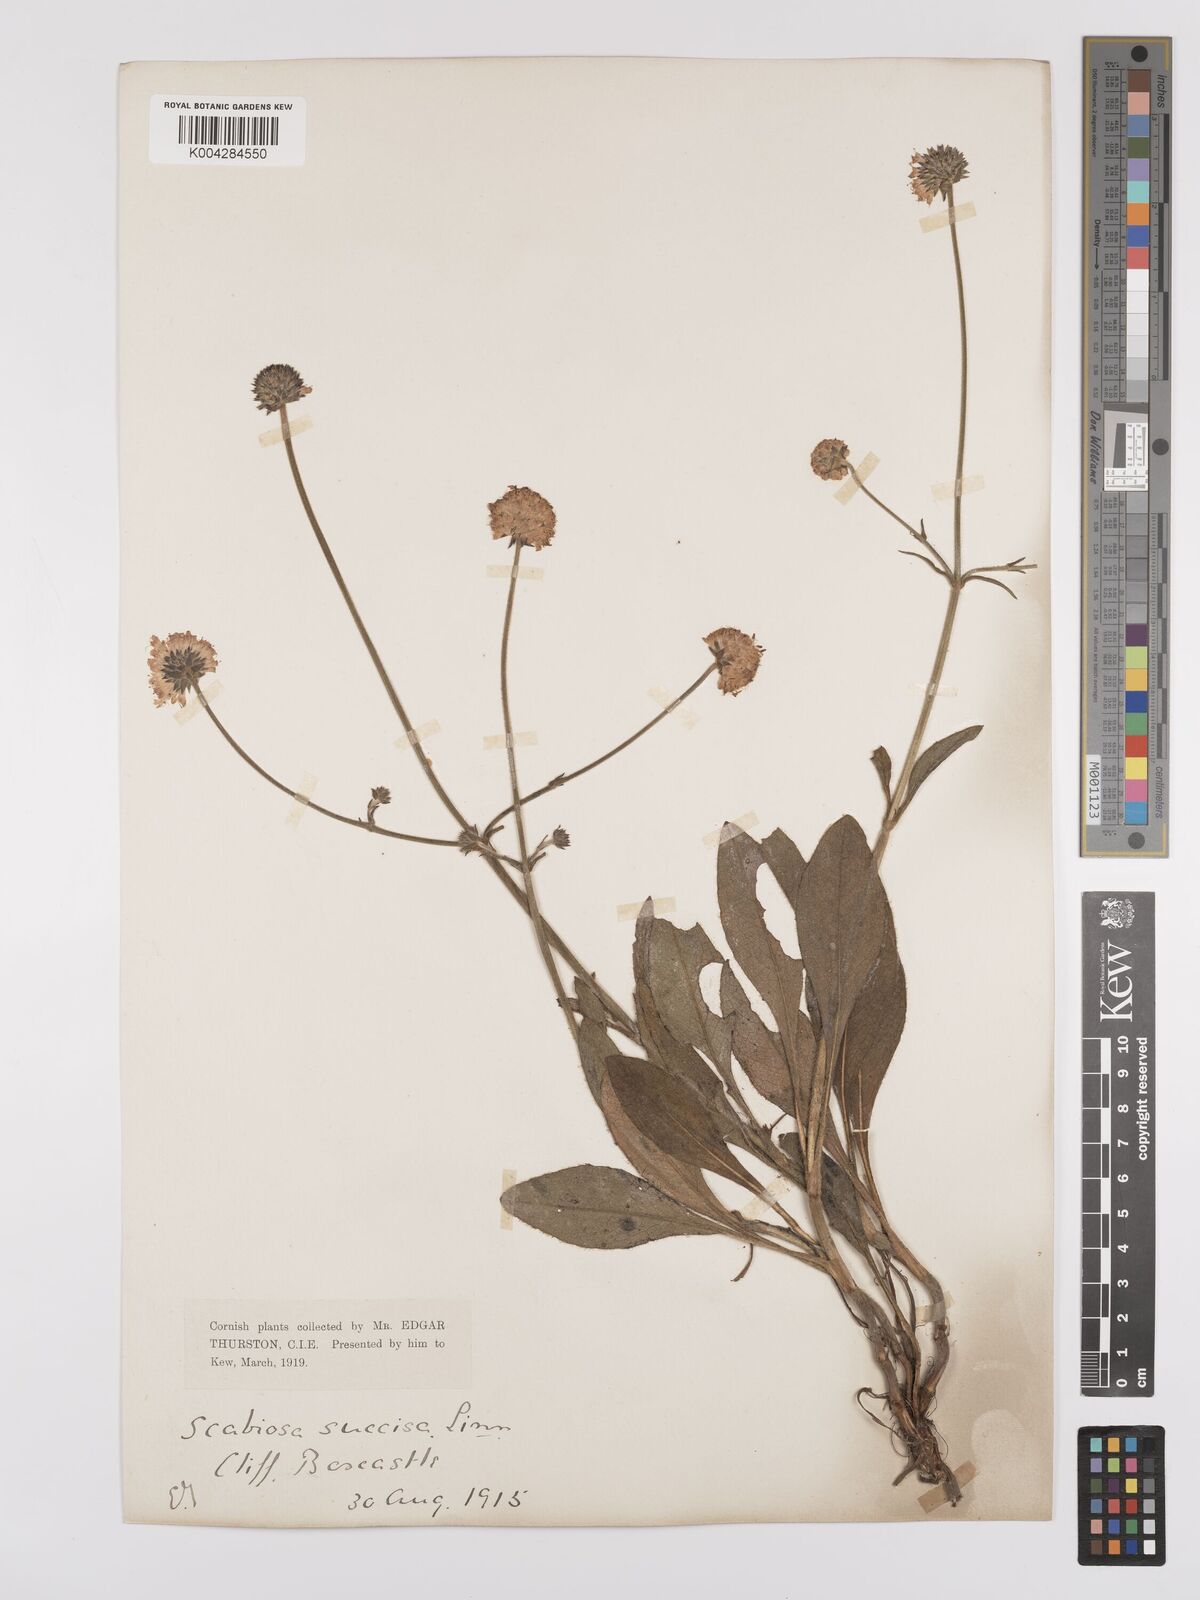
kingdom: Plantae
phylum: Tracheophyta
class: Magnoliopsida
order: Dipsacales
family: Caprifoliaceae
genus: Succisa
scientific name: Succisa pratensis
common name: Devil's-bit
